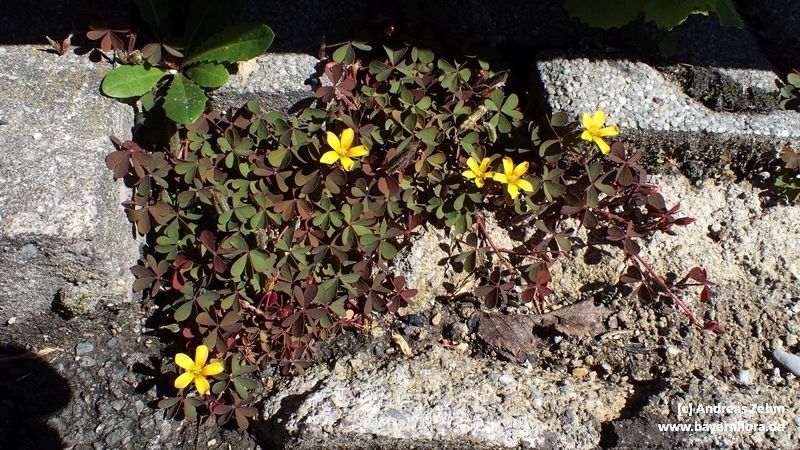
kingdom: Plantae
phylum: Tracheophyta
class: Magnoliopsida
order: Oxalidales
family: Oxalidaceae
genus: Oxalis
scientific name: Oxalis corniculata
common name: Procumbent yellow-sorrel
